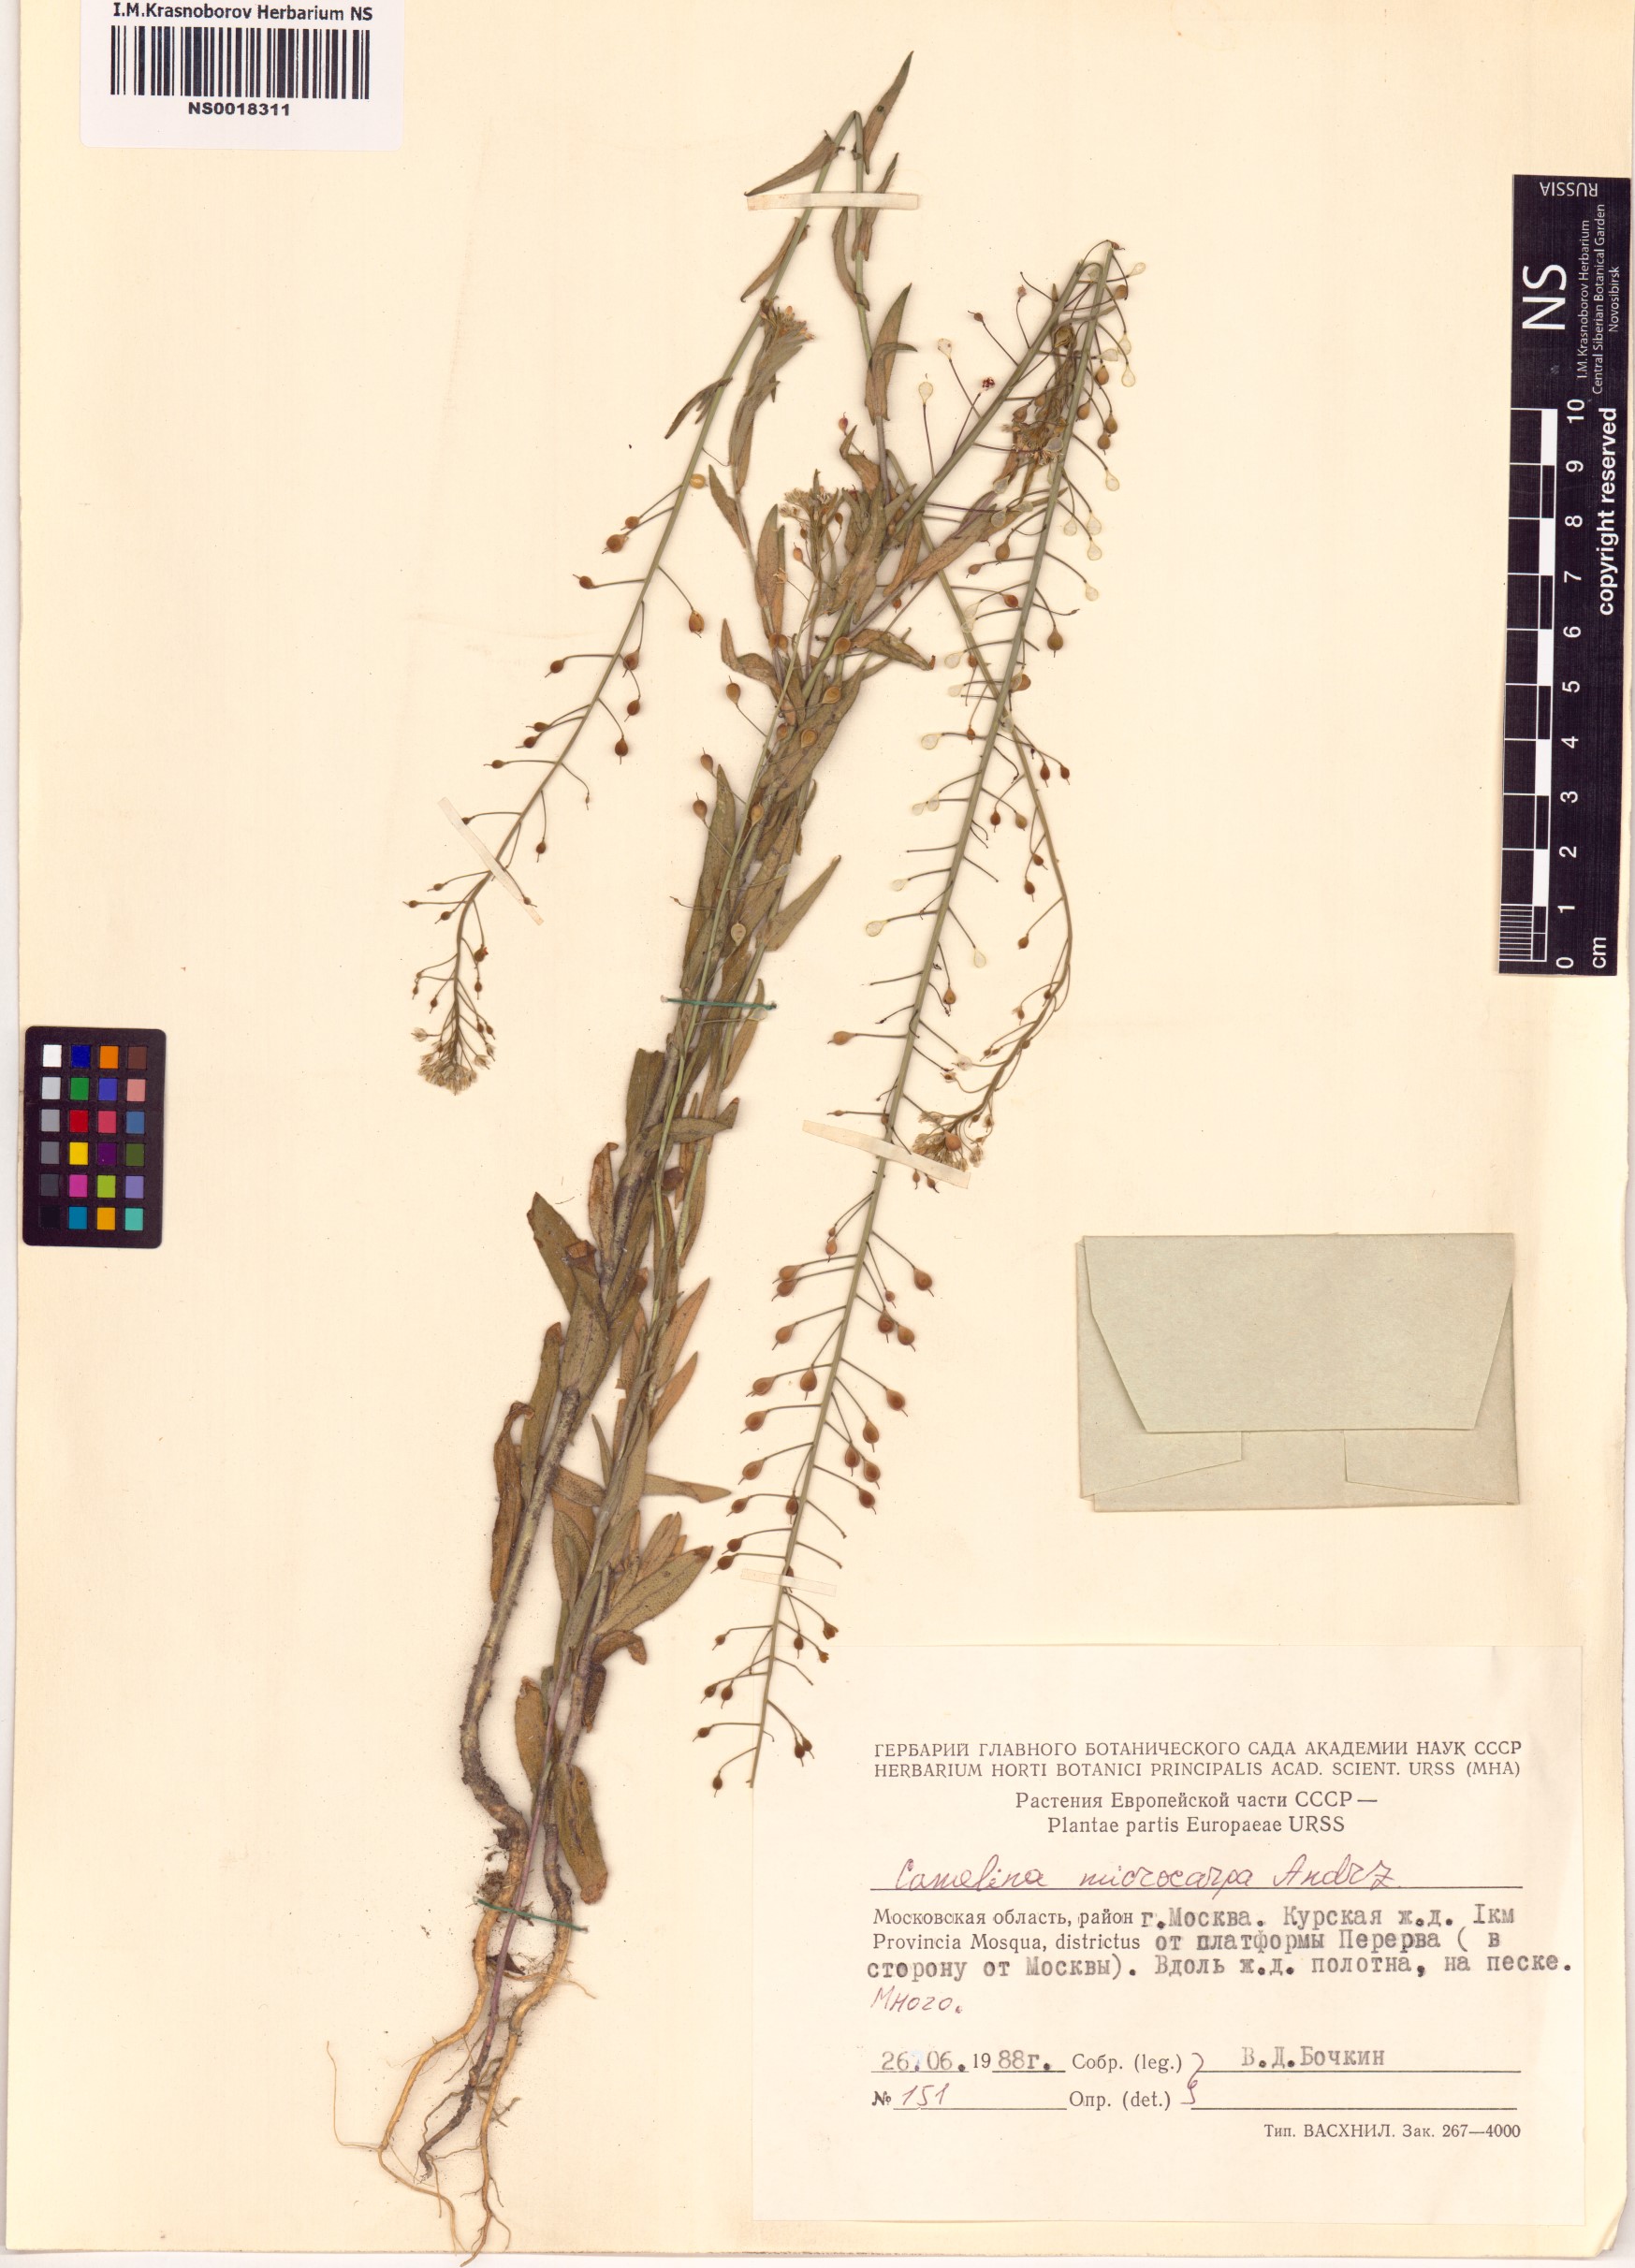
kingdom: Plantae
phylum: Tracheophyta
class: Magnoliopsida
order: Brassicales
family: Brassicaceae
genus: Camelina
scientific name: Camelina microcarpa
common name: Lesser gold-of-pleasure
